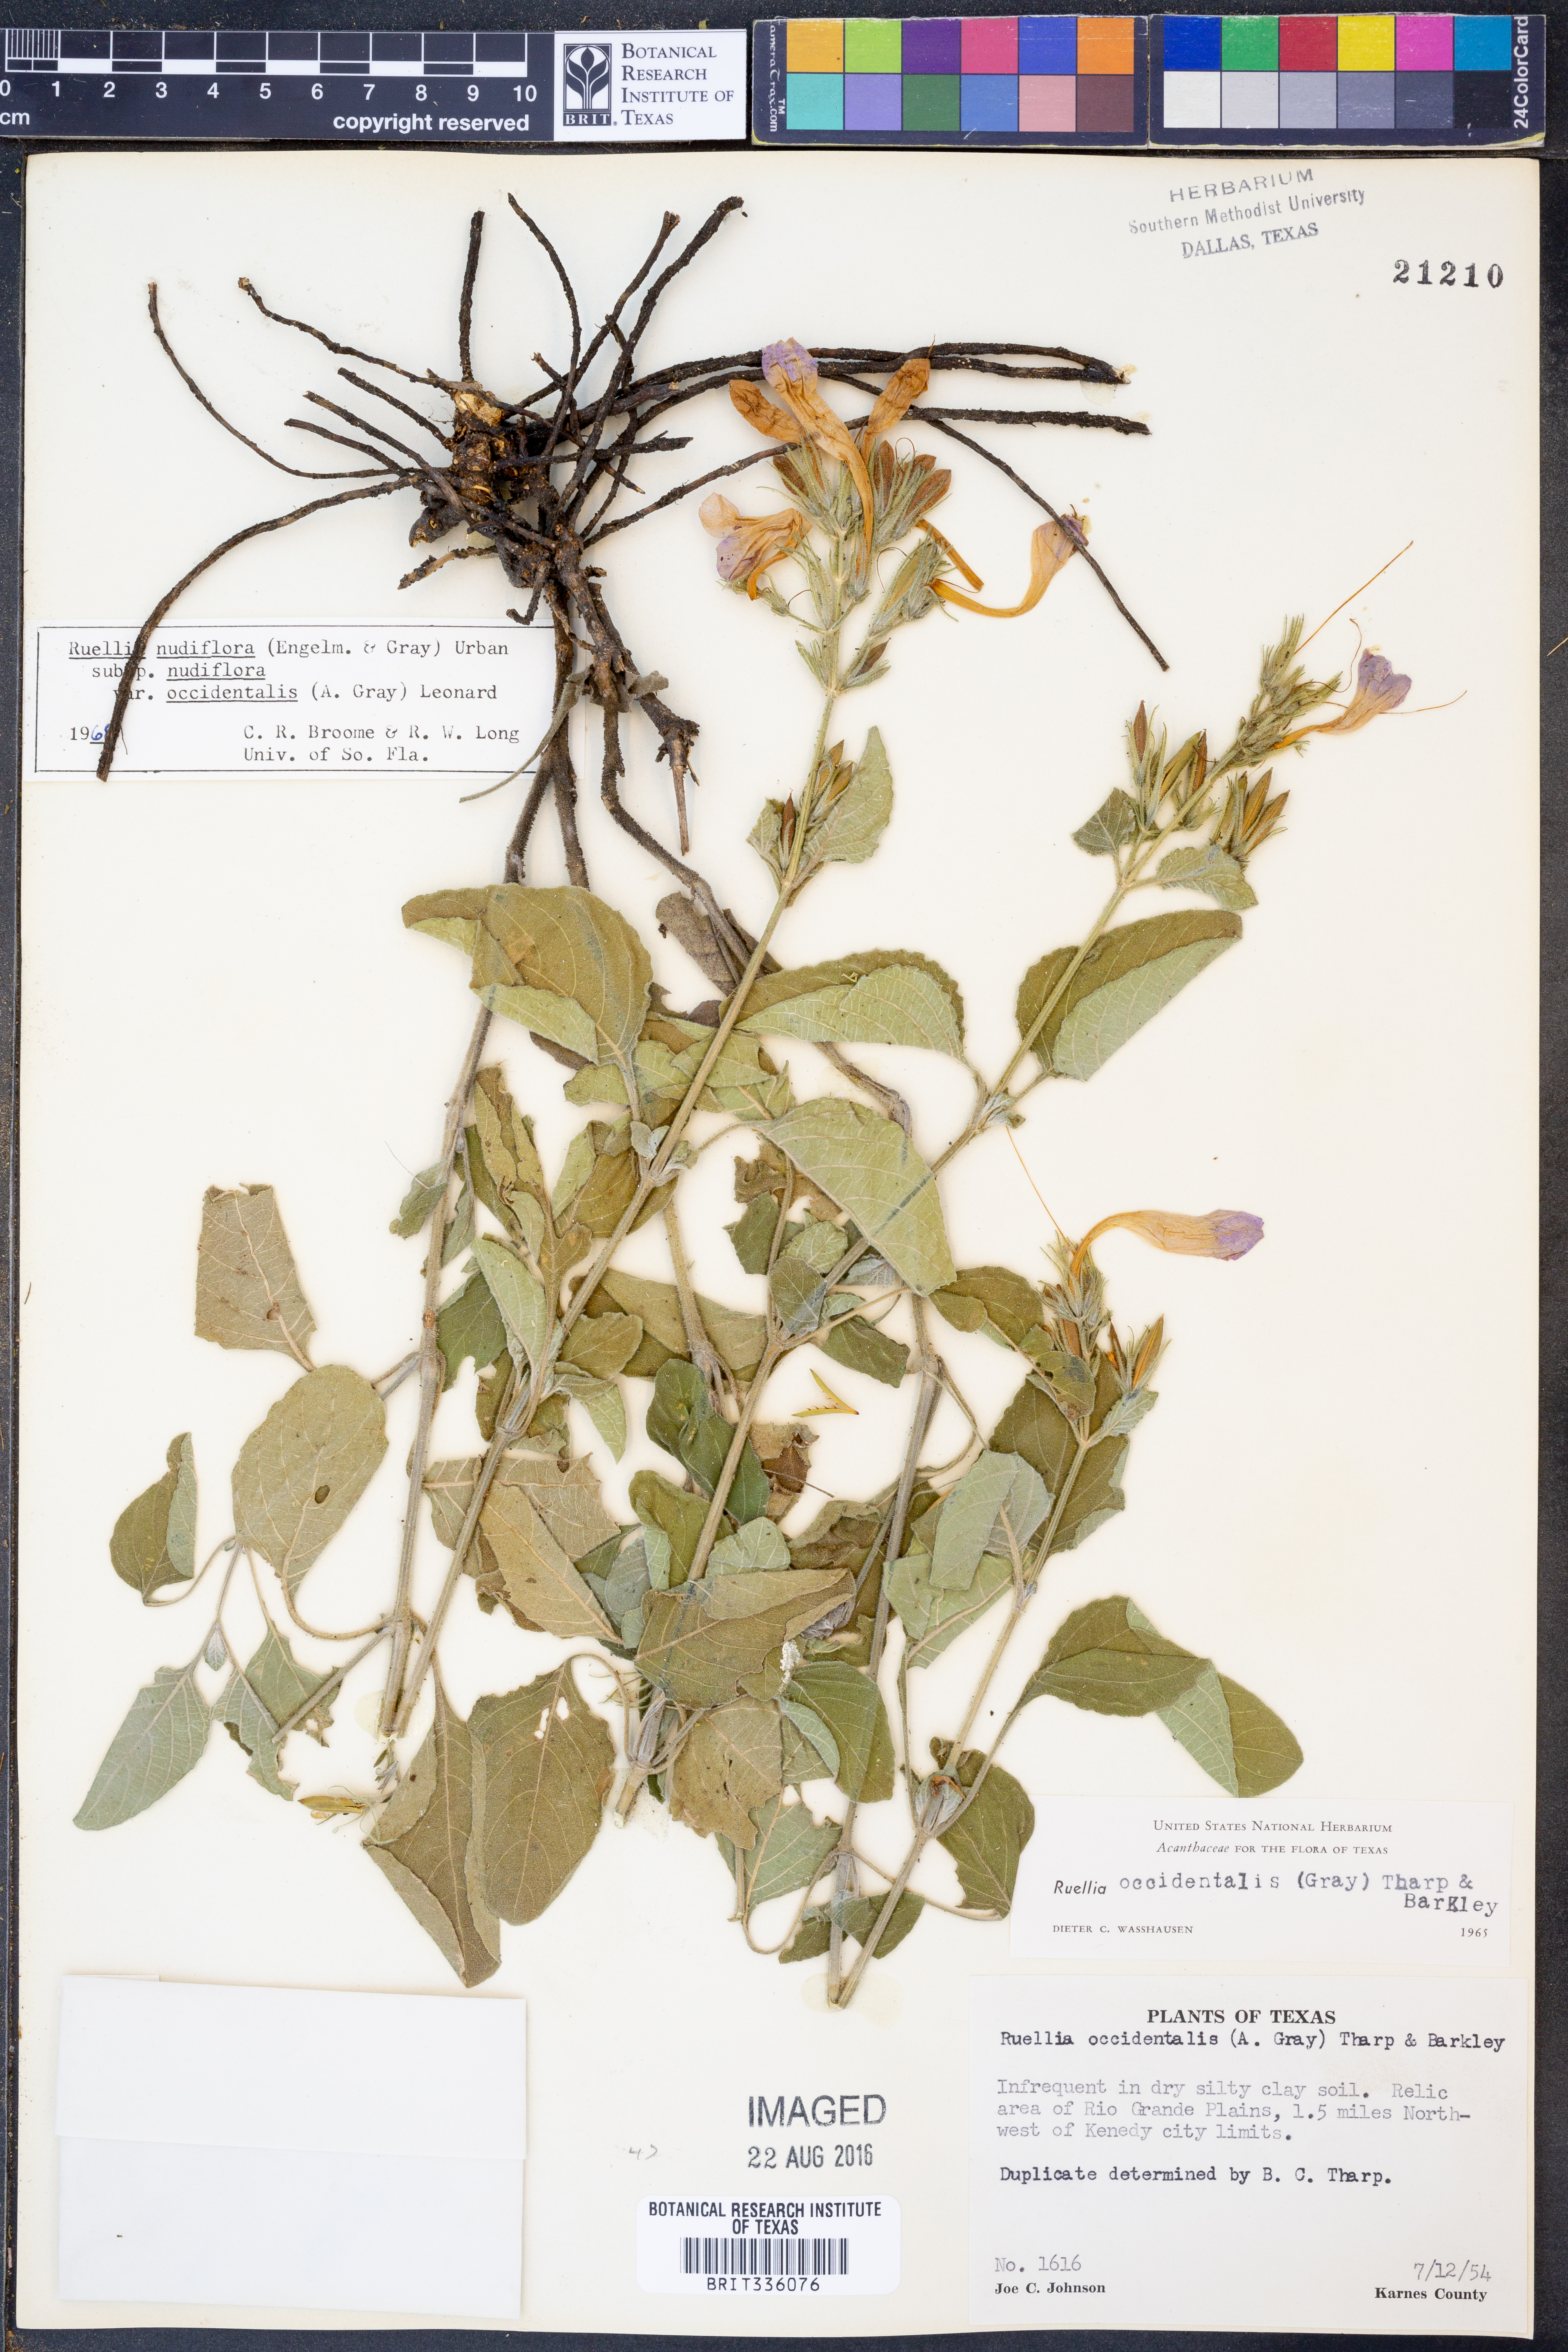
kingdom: Plantae
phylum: Tracheophyta
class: Magnoliopsida
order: Lamiales
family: Acanthaceae
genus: Ruellia
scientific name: Ruellia ciliatiflora
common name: Hairyflower wild petunia
